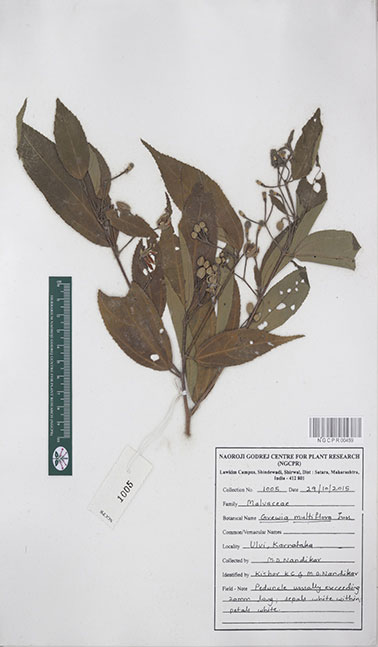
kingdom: Plantae
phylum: Tracheophyta
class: Magnoliopsida
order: Malvales
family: Malvaceae
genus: Grewia
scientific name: Grewia multiflora
